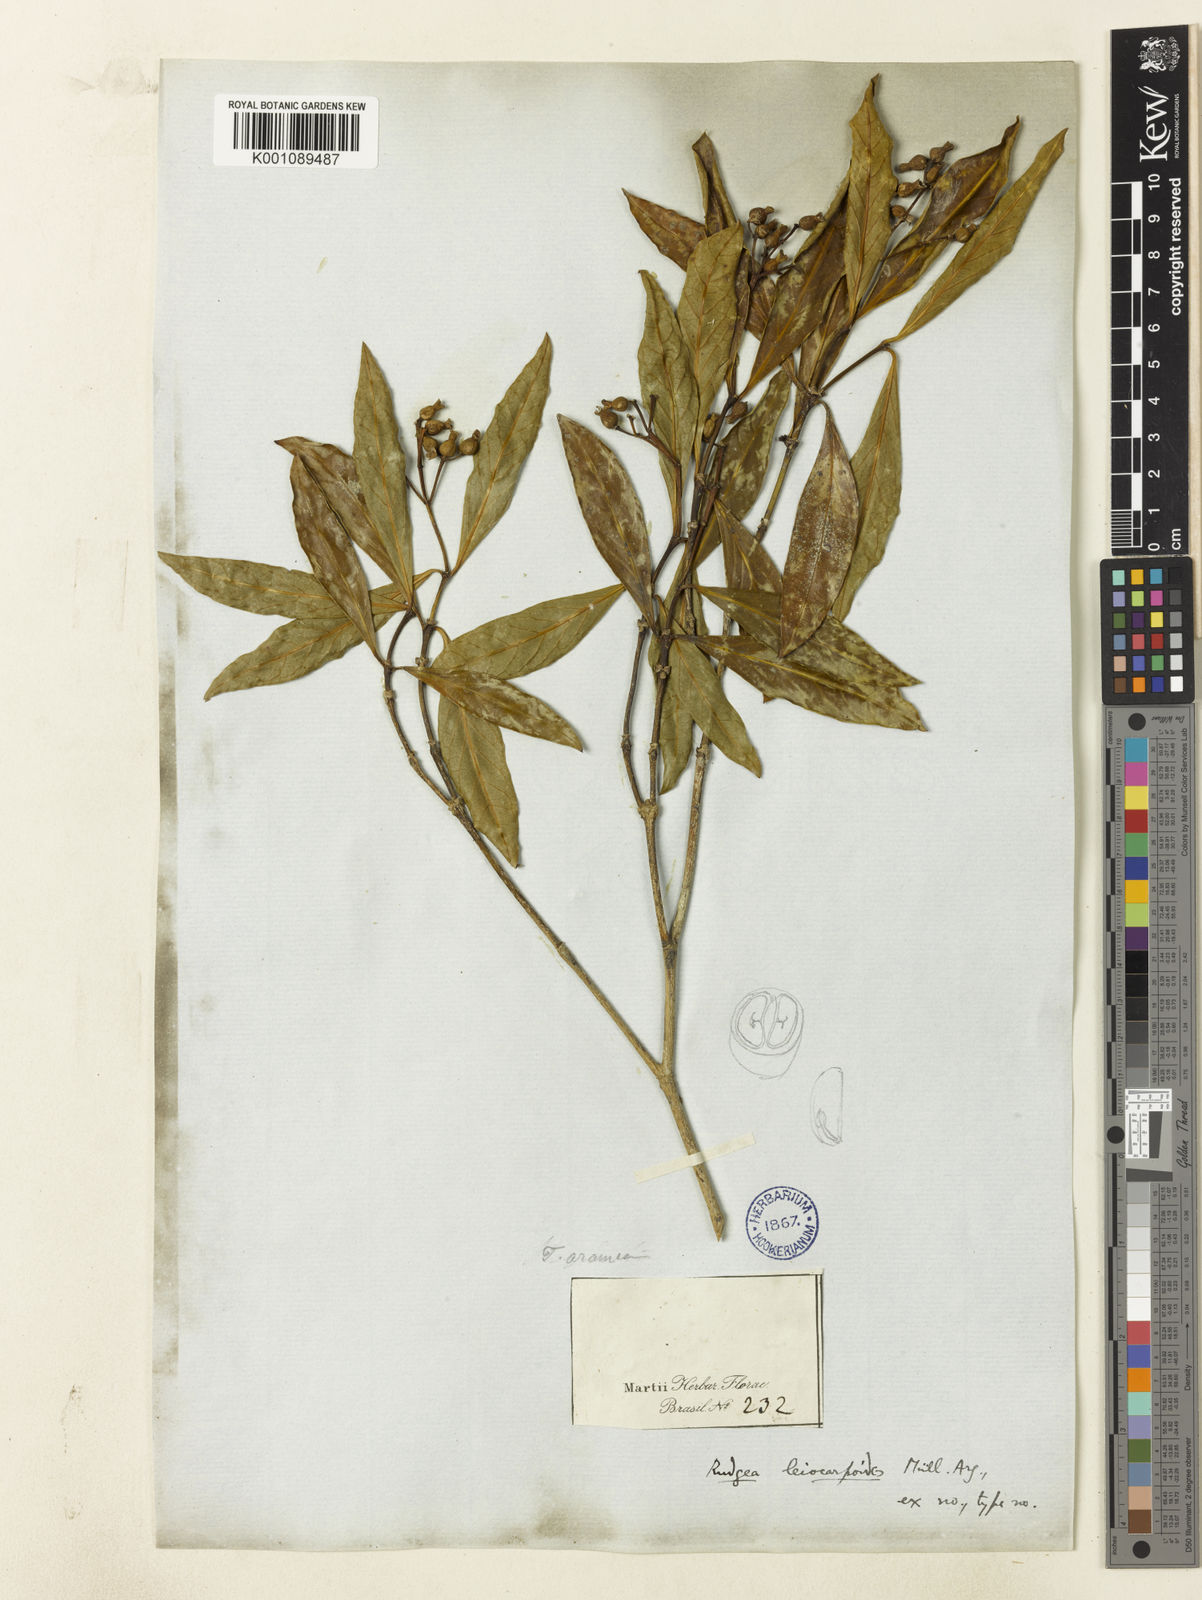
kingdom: Plantae
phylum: Tracheophyta
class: Magnoliopsida
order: Gentianales
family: Rubiaceae
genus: Rudgea
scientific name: Rudgea
